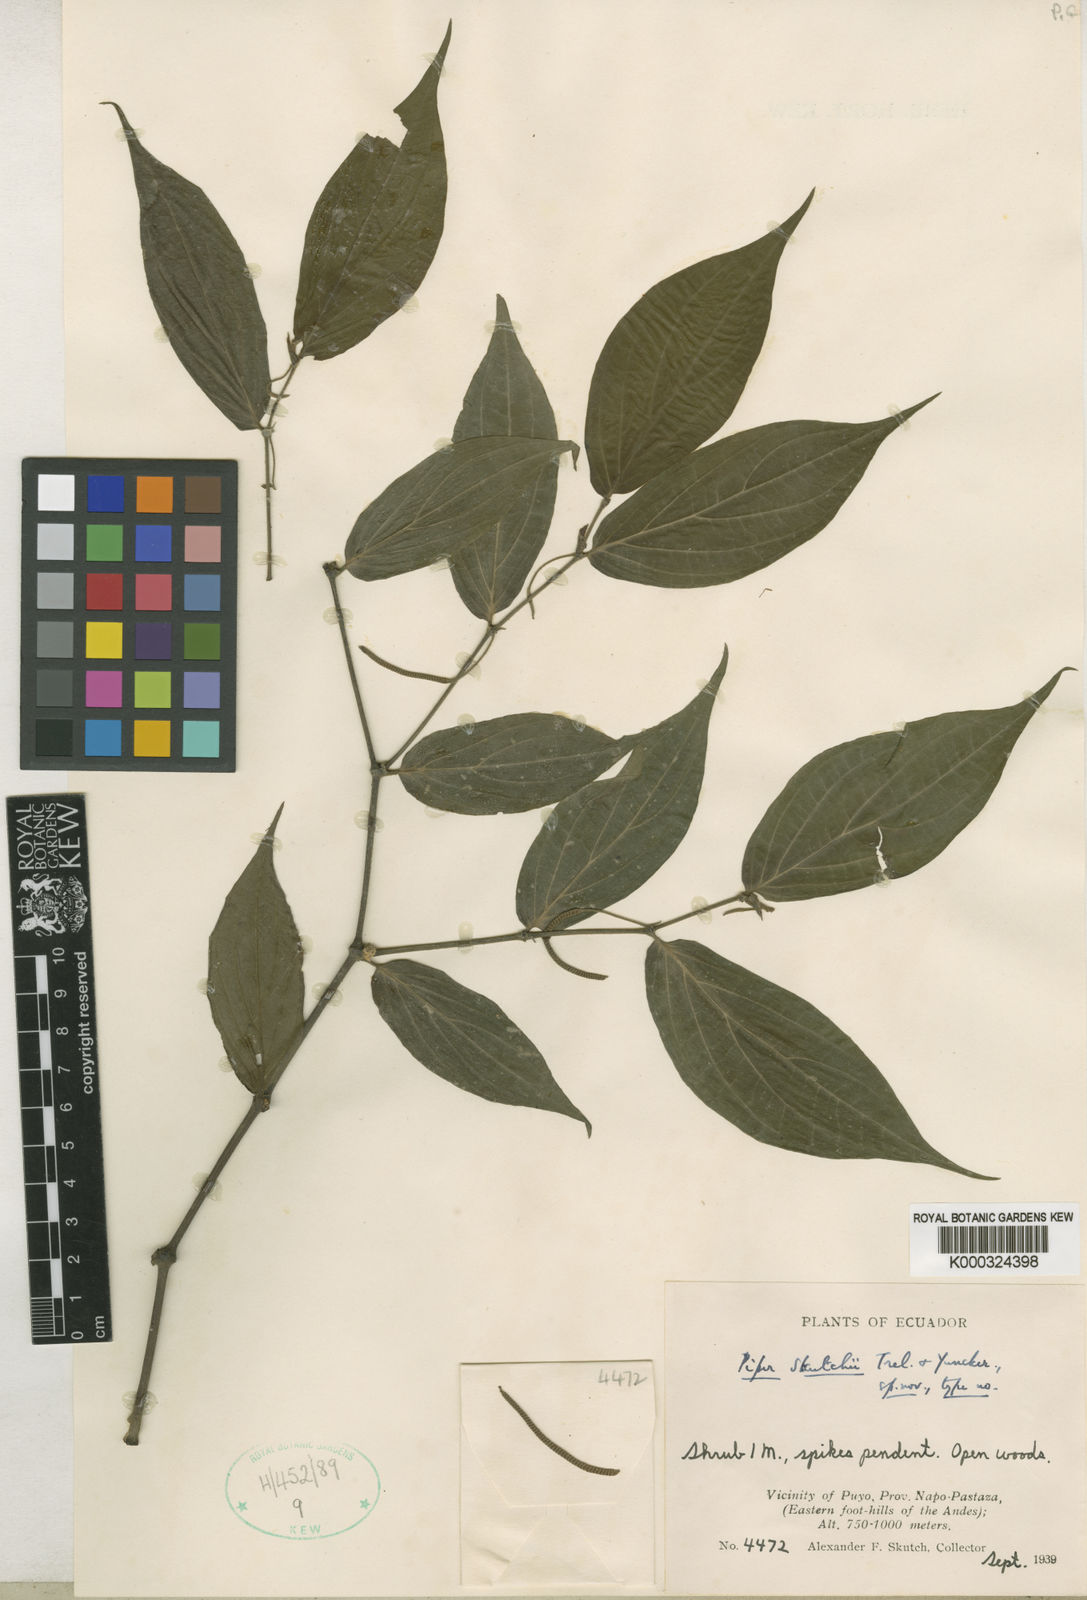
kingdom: Plantae
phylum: Tracheophyta
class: Magnoliopsida
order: Piperales
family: Piperaceae
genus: Piper
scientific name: Piper skutchii
